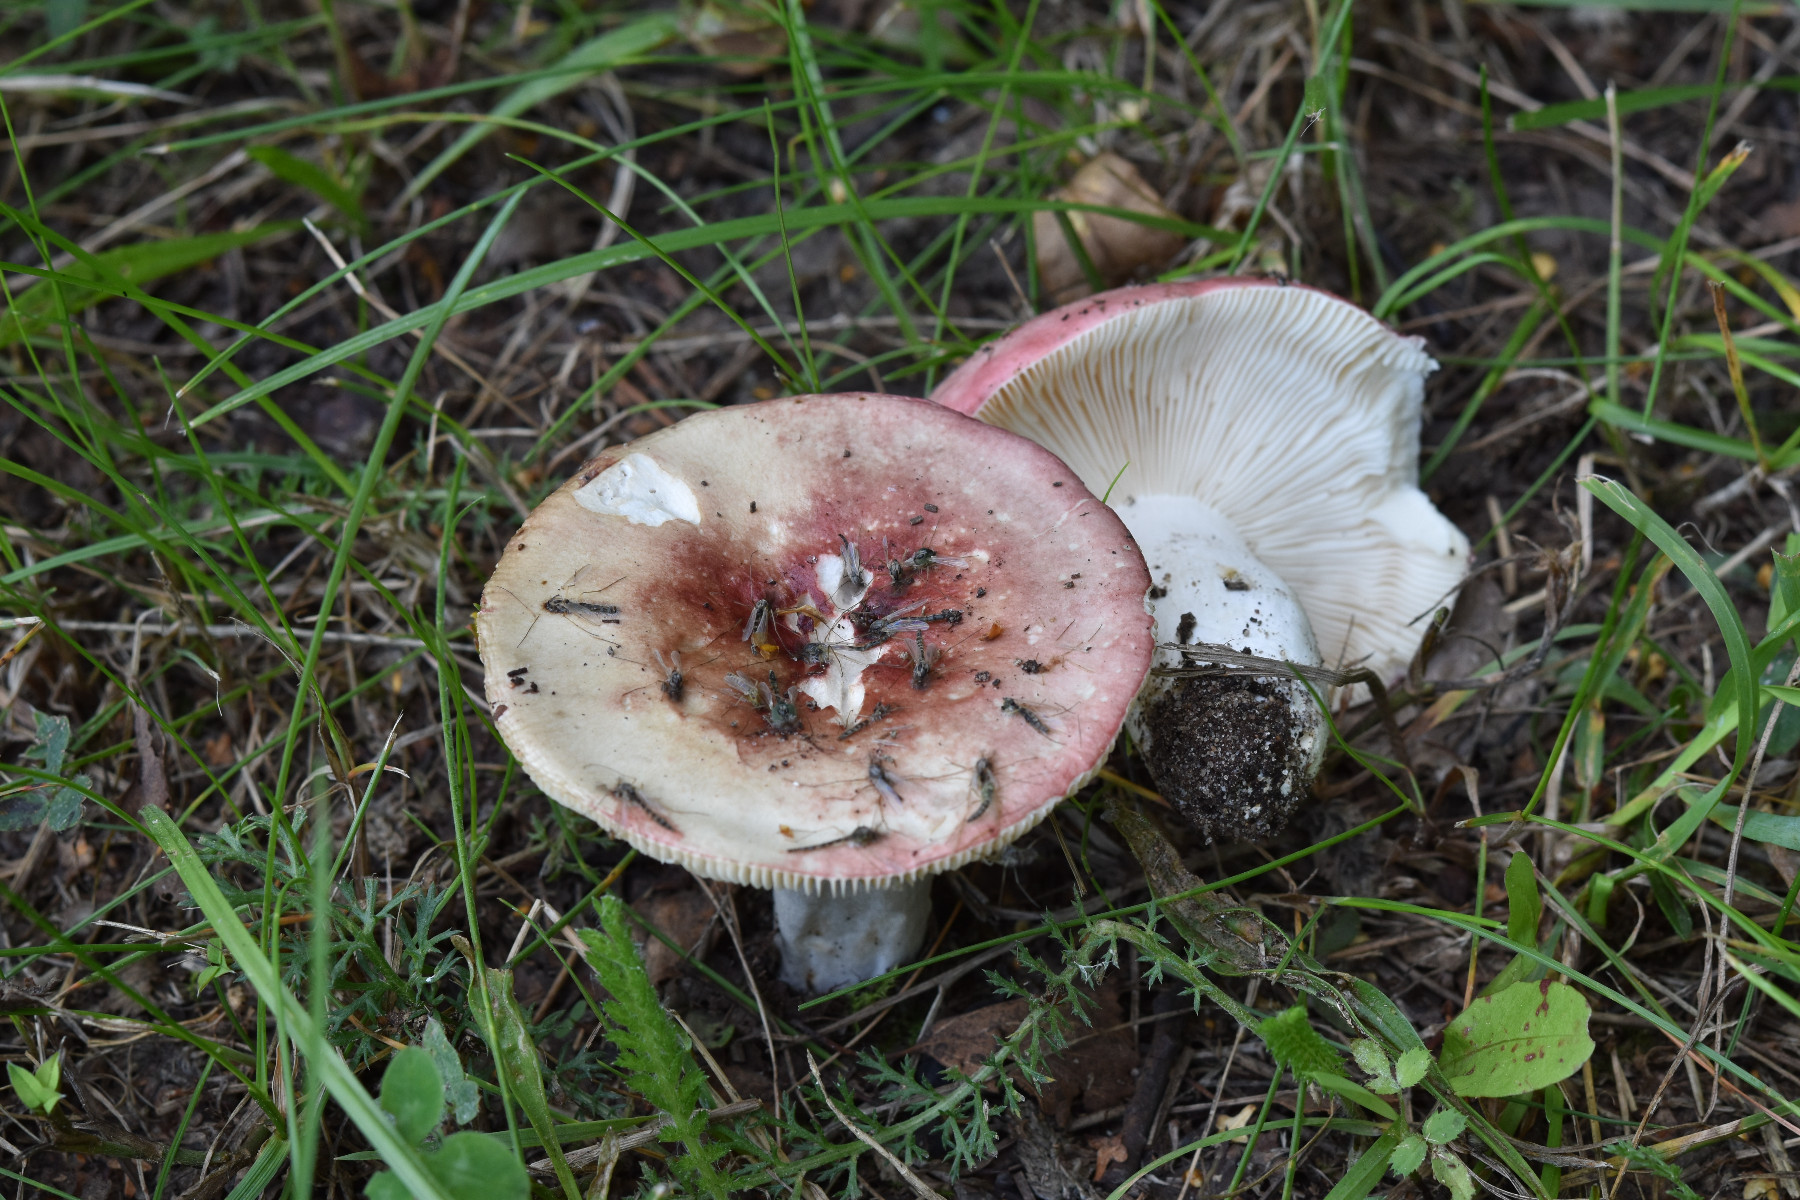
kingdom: Fungi
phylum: Basidiomycota
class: Agaricomycetes
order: Russulales
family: Russulaceae
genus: Russula
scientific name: Russula depallens
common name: falmende skørhat
